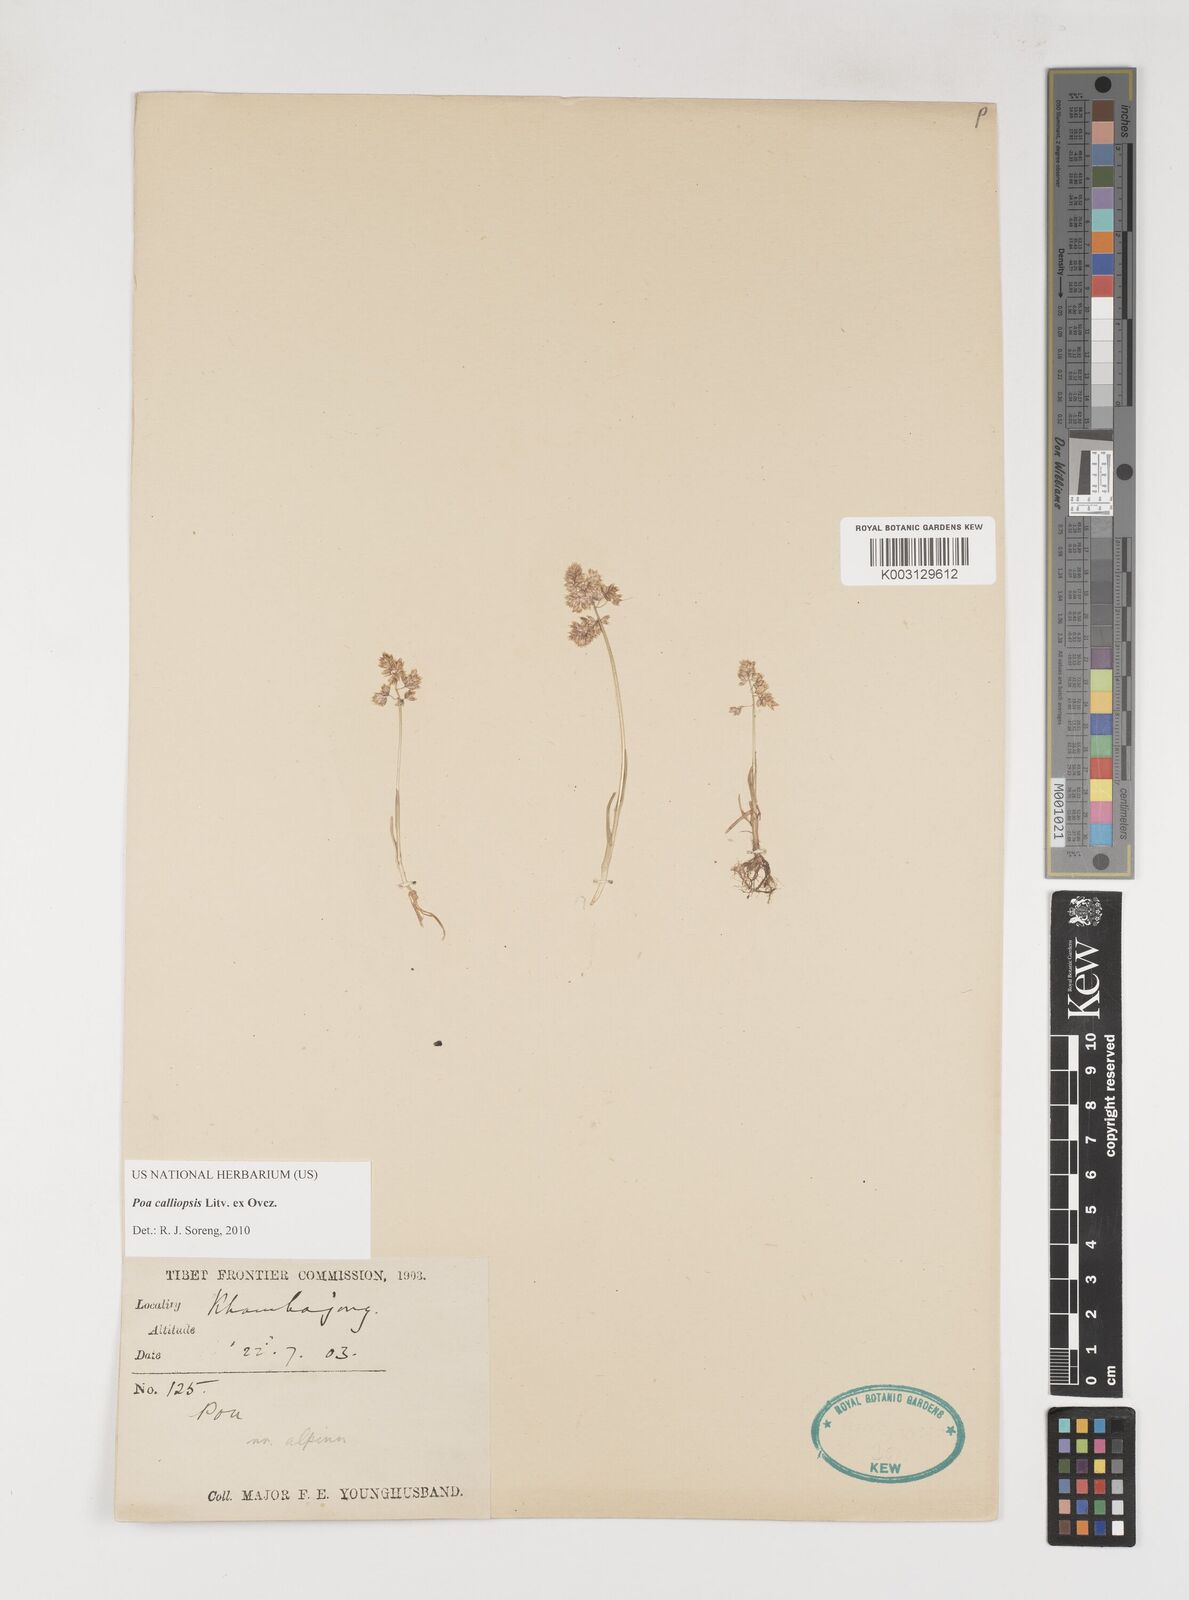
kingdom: Plantae
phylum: Tracheophyta
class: Liliopsida
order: Poales
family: Poaceae
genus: Poa
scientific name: Poa calliopsis
